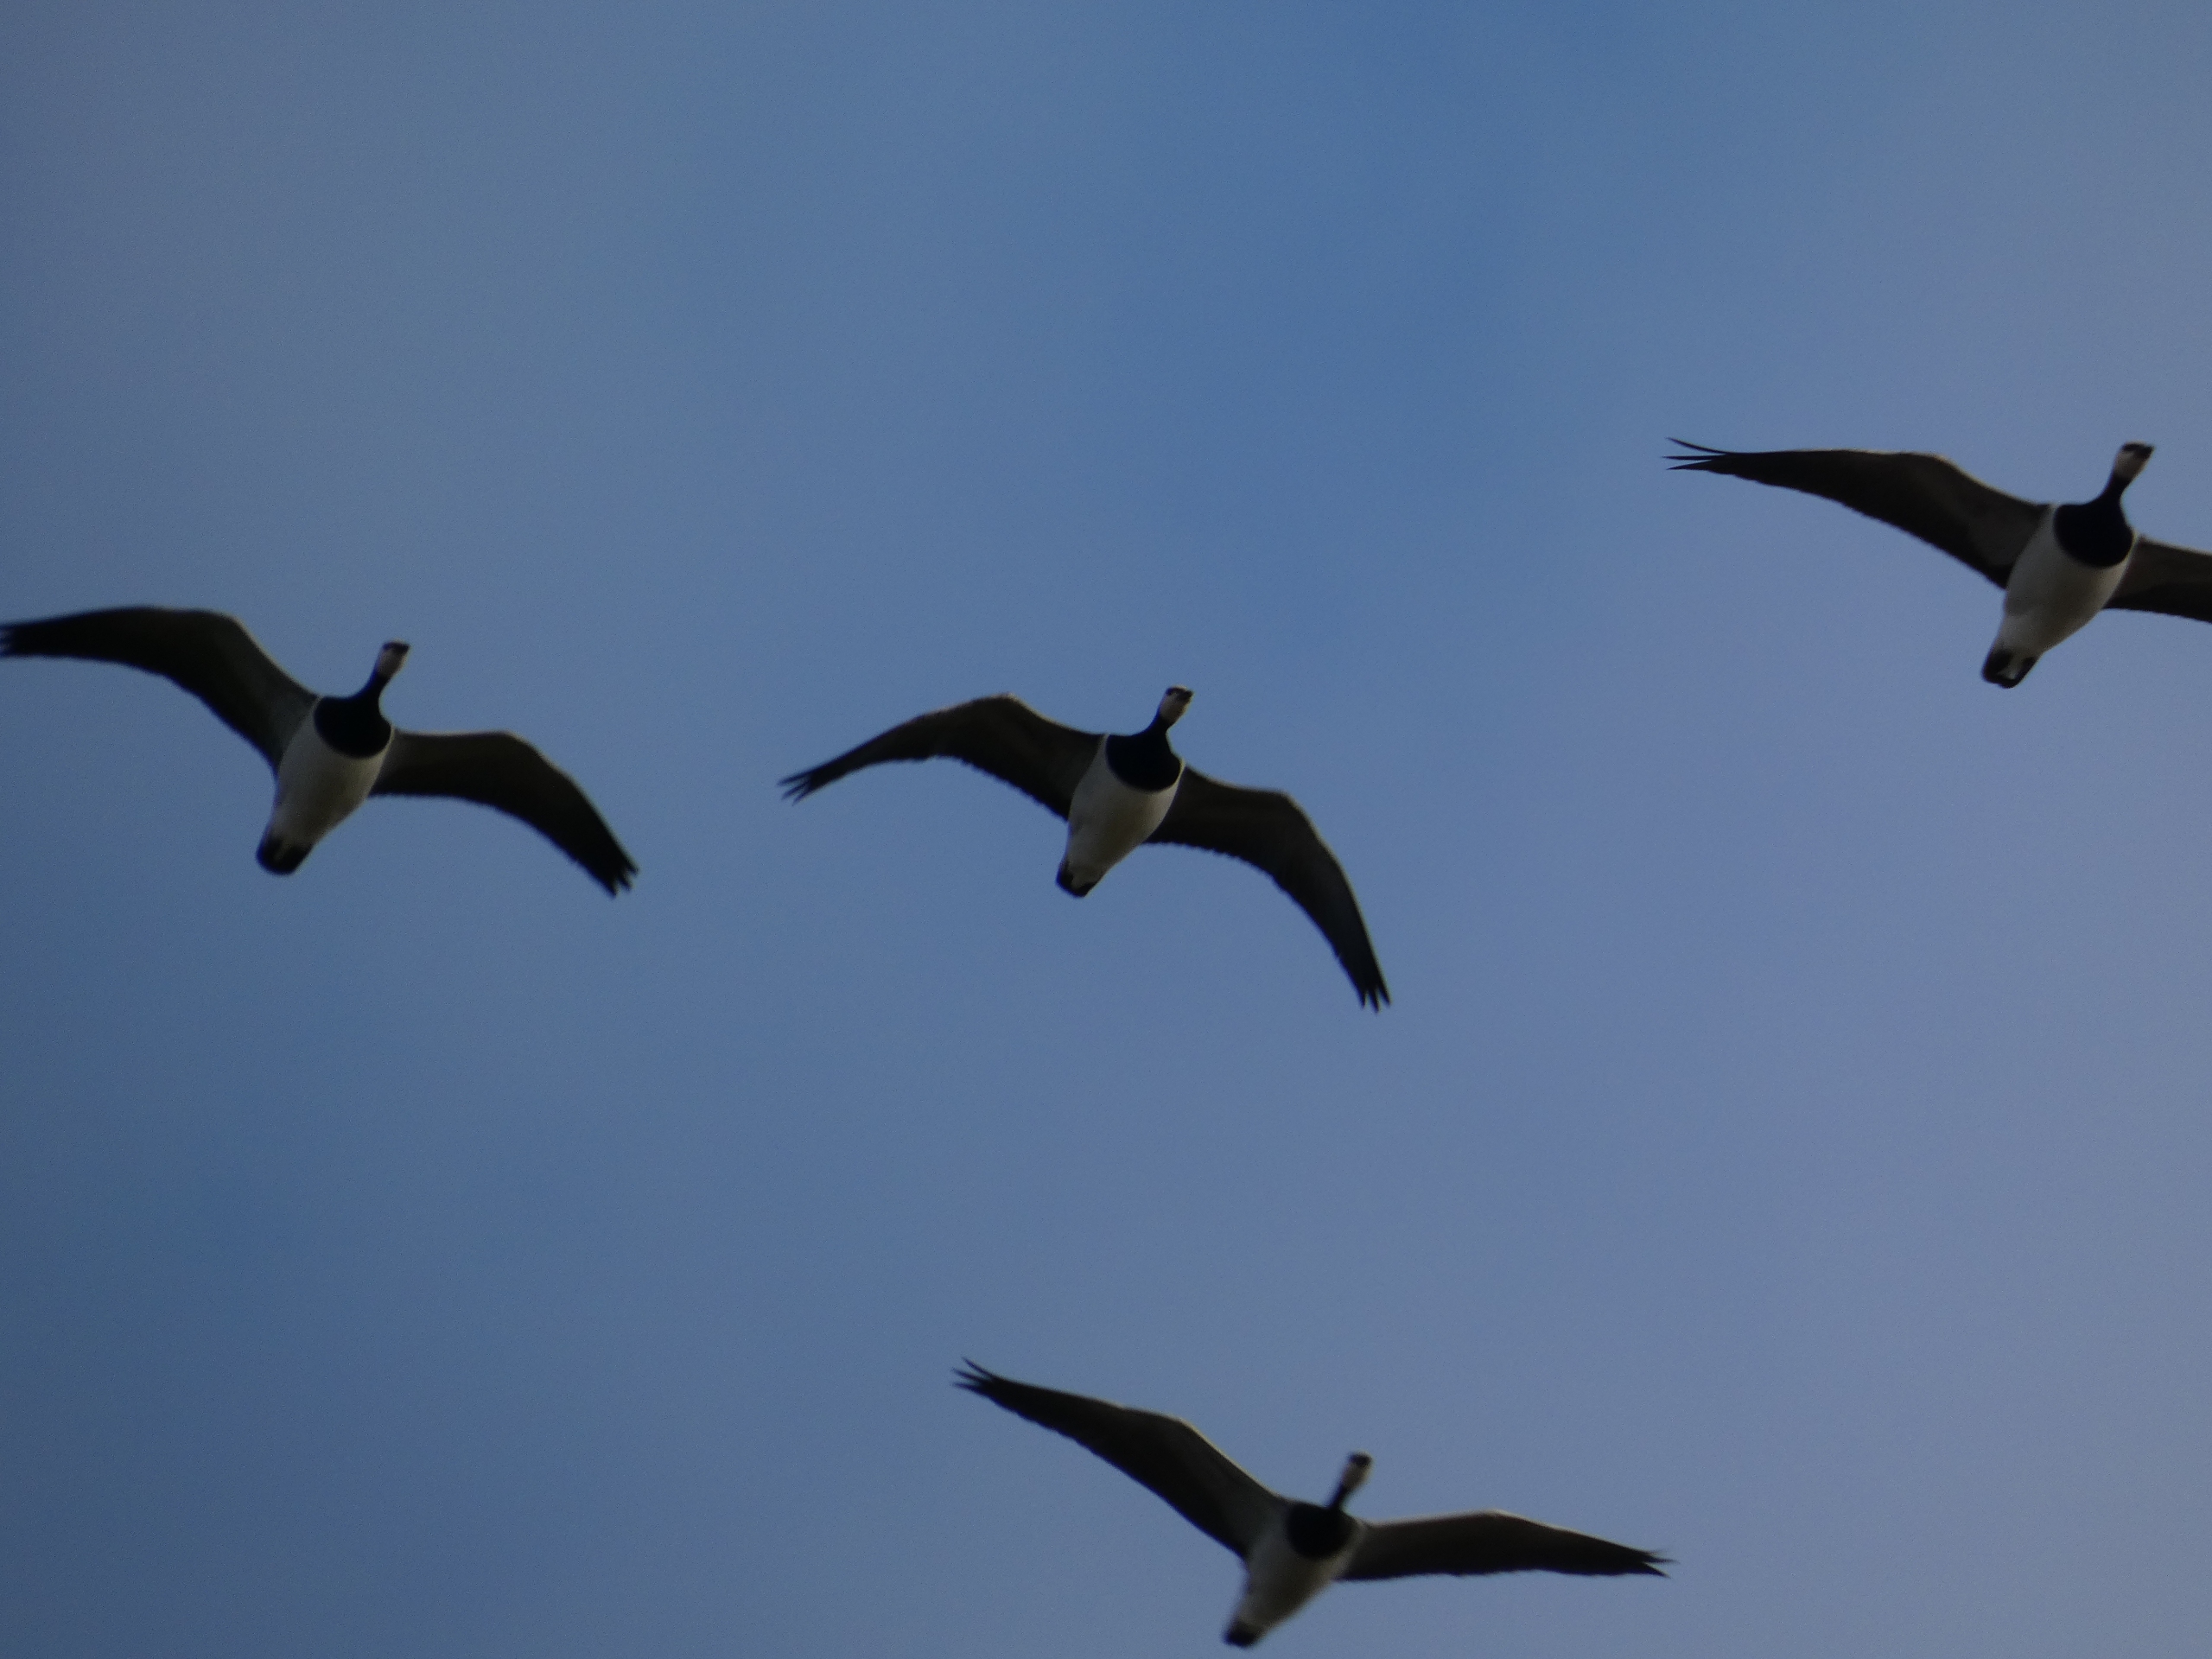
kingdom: Animalia
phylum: Chordata
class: Aves
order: Anseriformes
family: Anatidae
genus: Branta
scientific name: Branta leucopsis
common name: Bramgås
